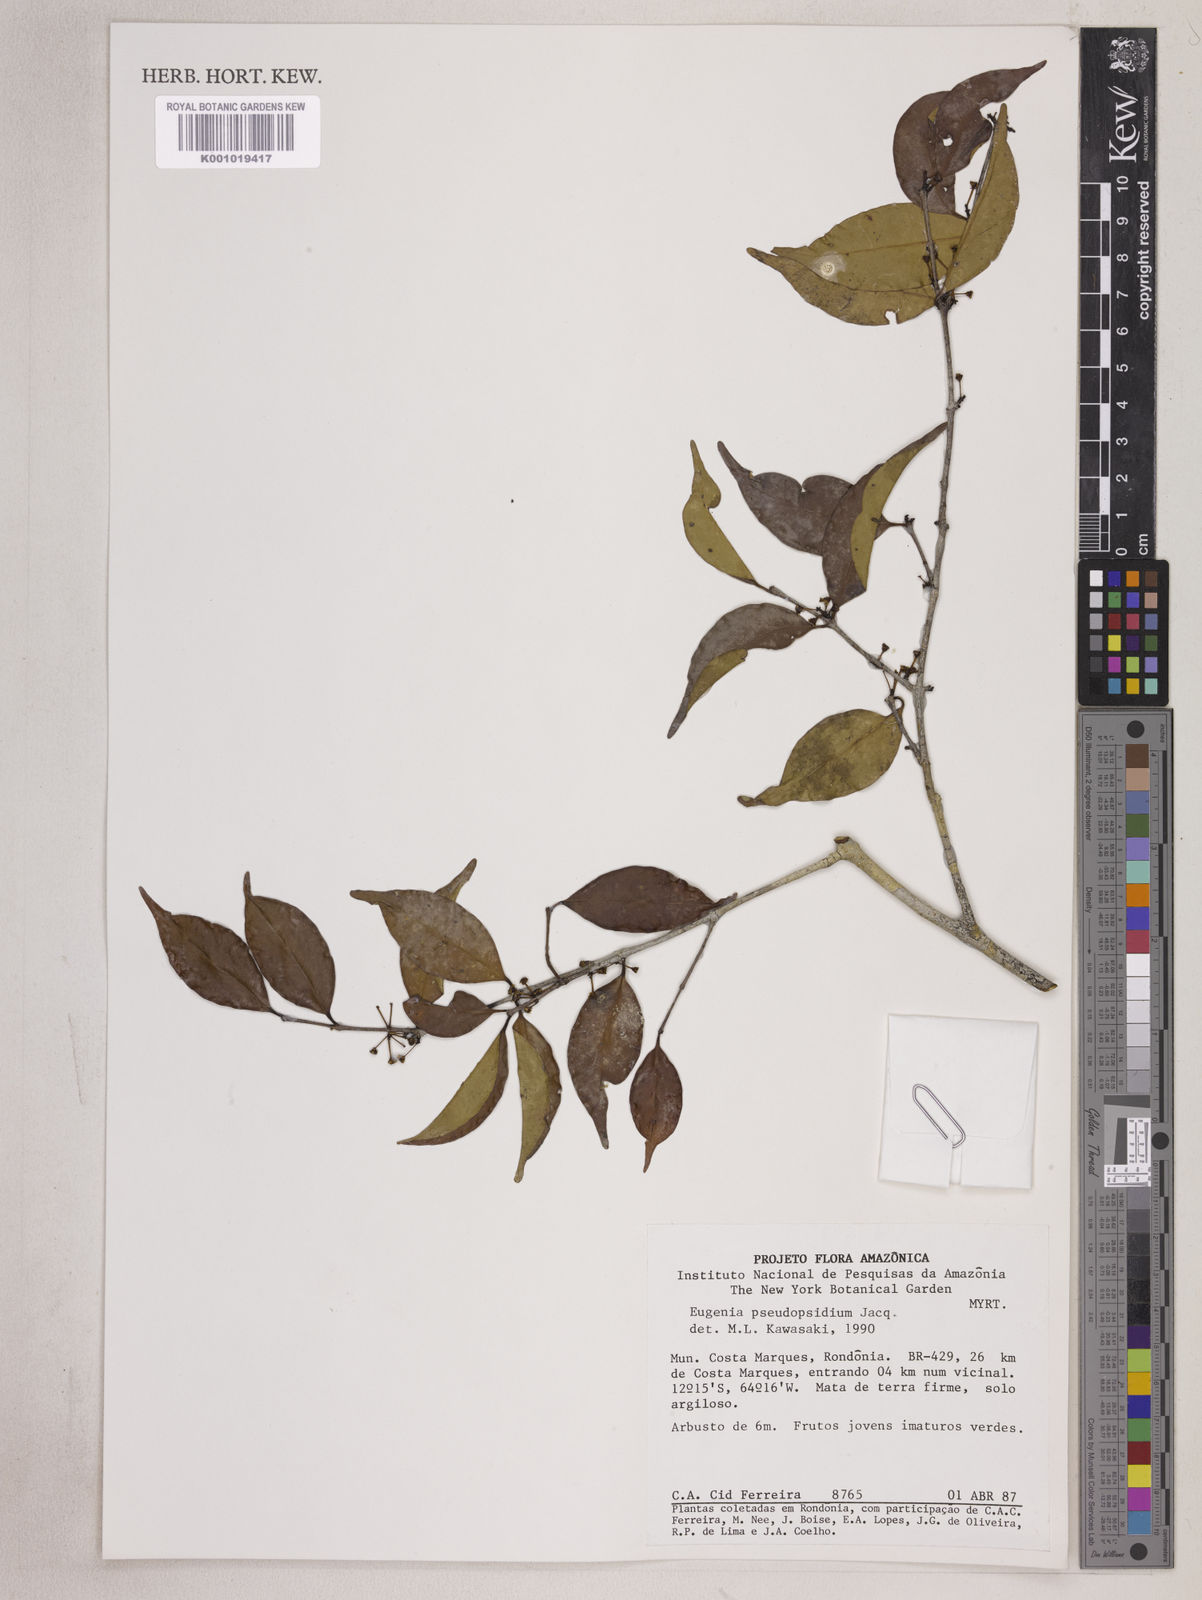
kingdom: Plantae
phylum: Tracheophyta
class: Magnoliopsida
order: Myrtales
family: Myrtaceae
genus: Eugenia
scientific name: Eugenia pseudopsidium
